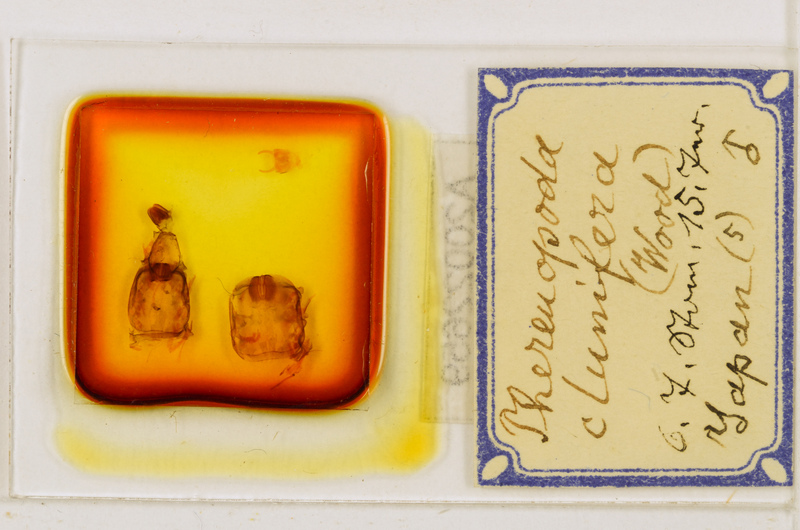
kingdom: Animalia
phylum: Arthropoda
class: Chilopoda
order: Scutigeromorpha
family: Scutigeridae
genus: Thereuopoda
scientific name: Thereuopoda clunifera
